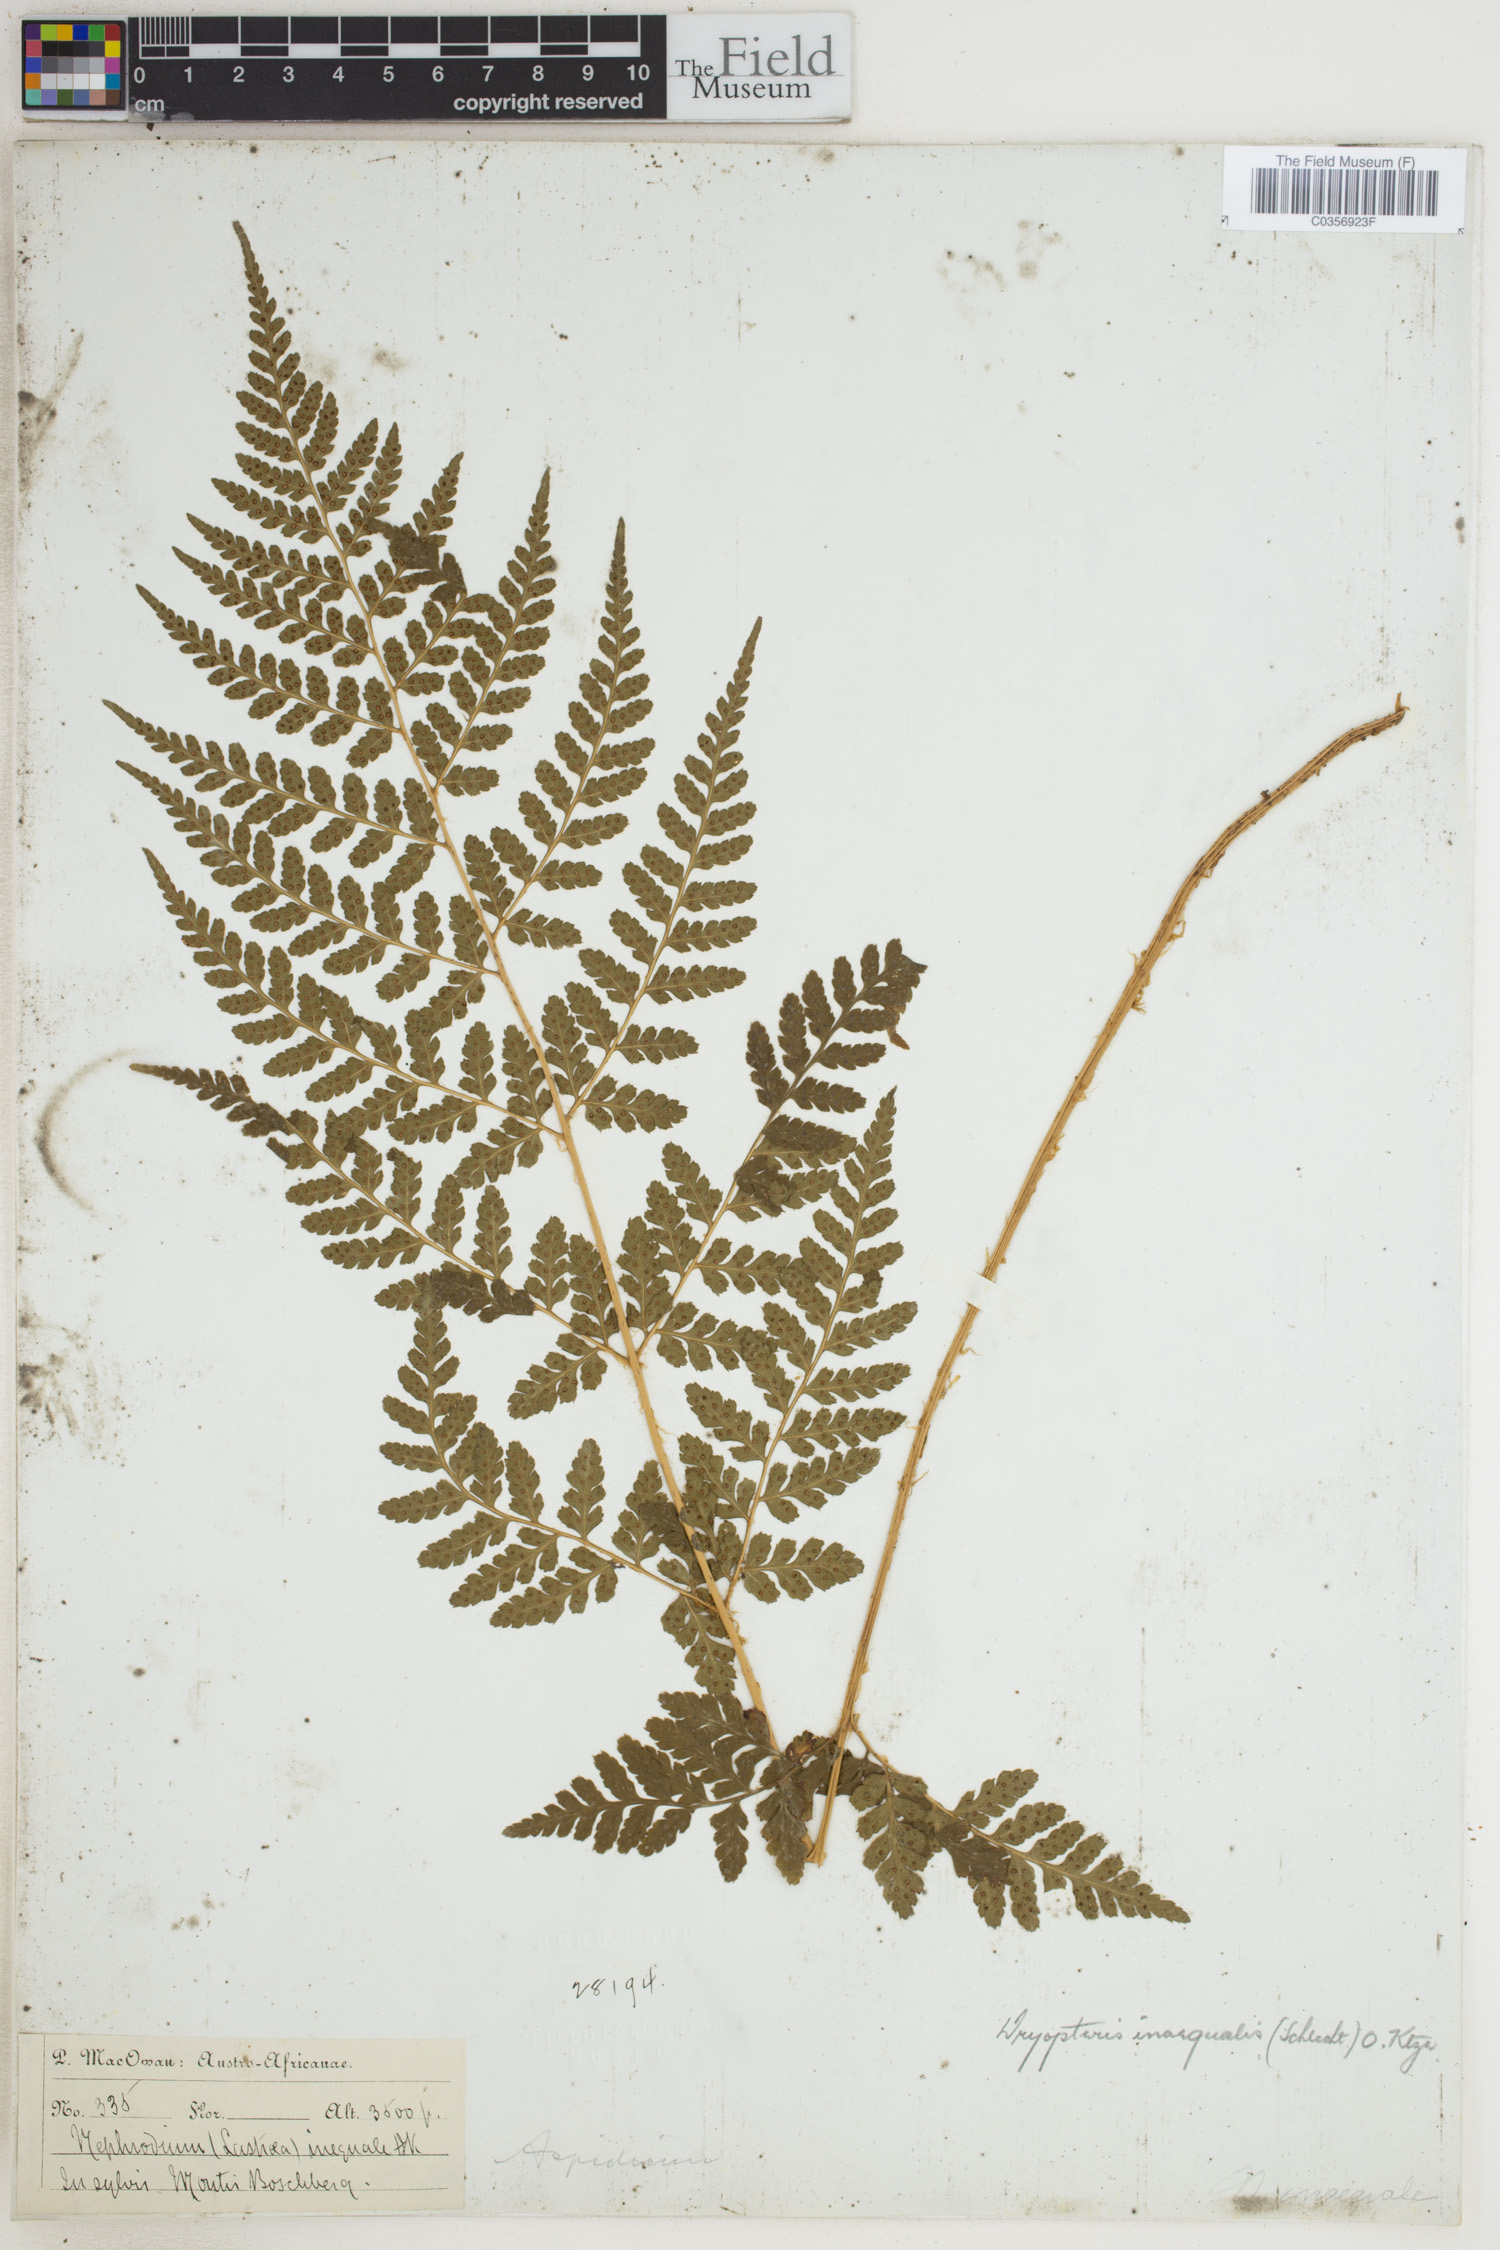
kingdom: Plantae
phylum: Tracheophyta
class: Polypodiopsida
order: Polypodiales
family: Dryopteridaceae
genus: Dryopteris
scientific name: Dryopteris inaequalis
